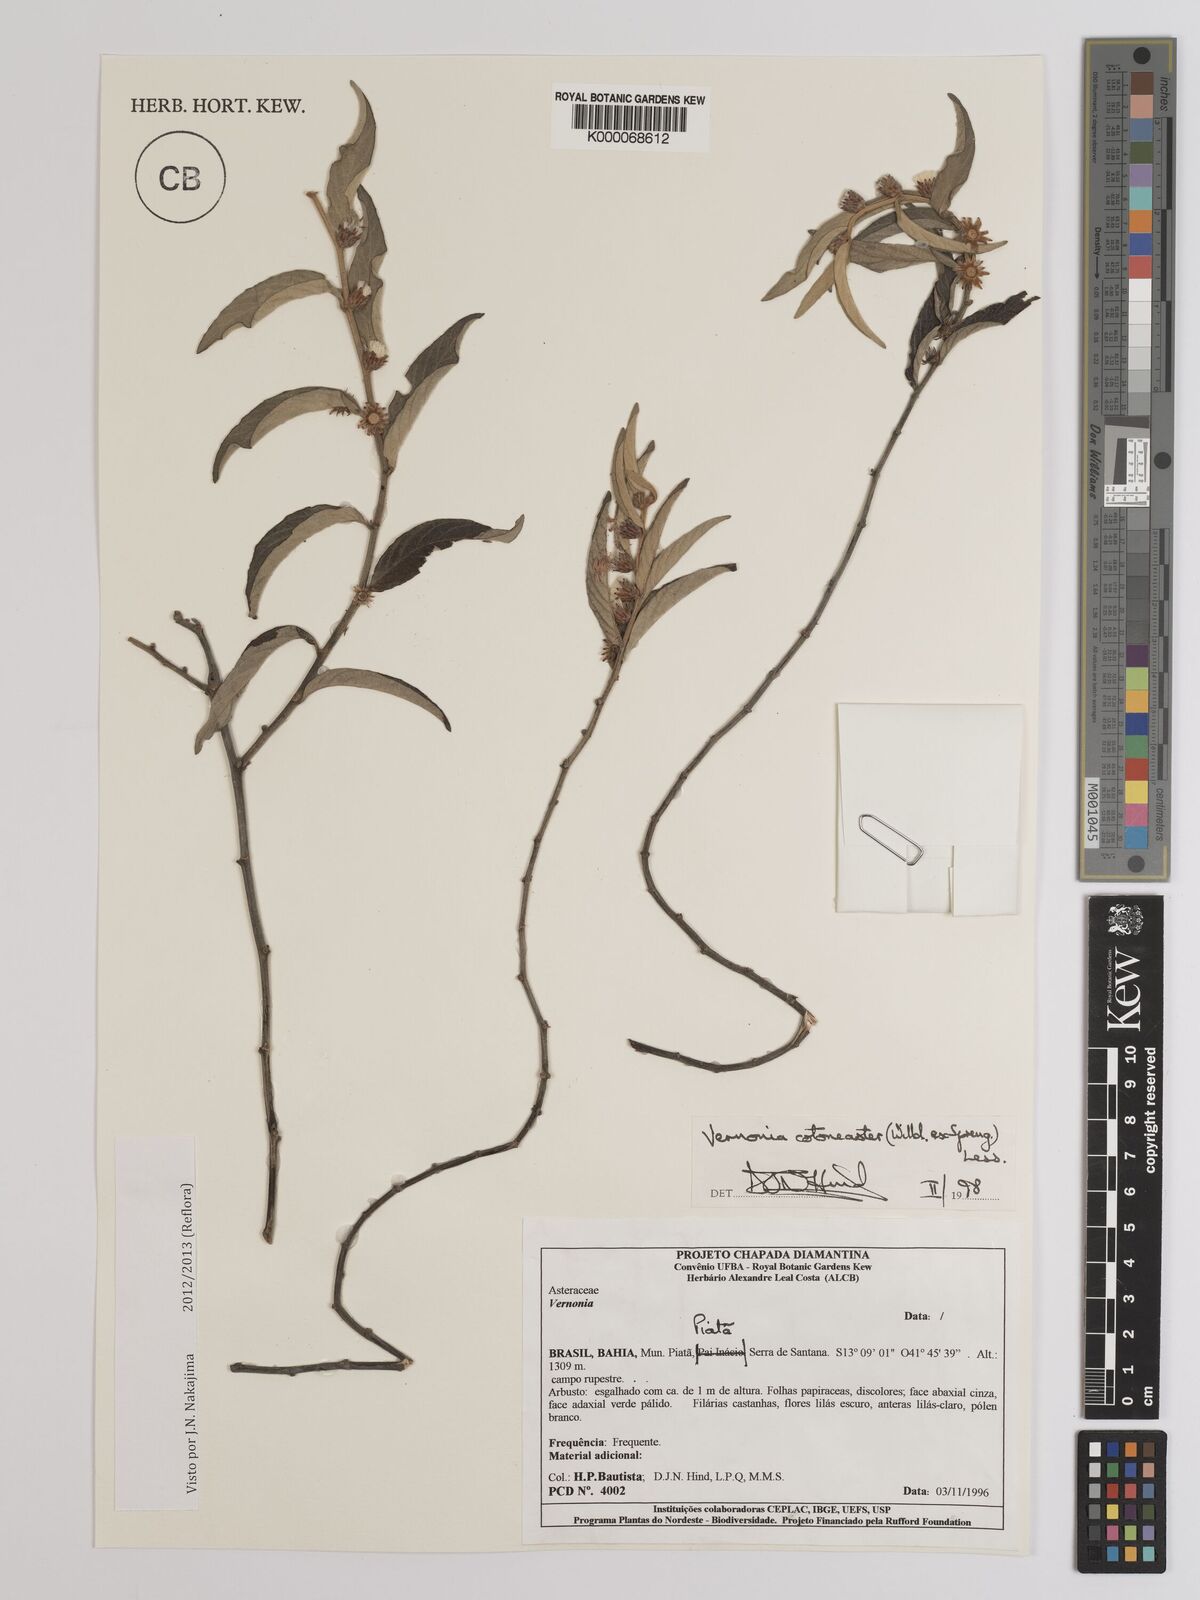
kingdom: Plantae
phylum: Tracheophyta
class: Magnoliopsida
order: Asterales
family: Asteraceae
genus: Lepidaploa
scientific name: Lepidaploa cotoneaster
